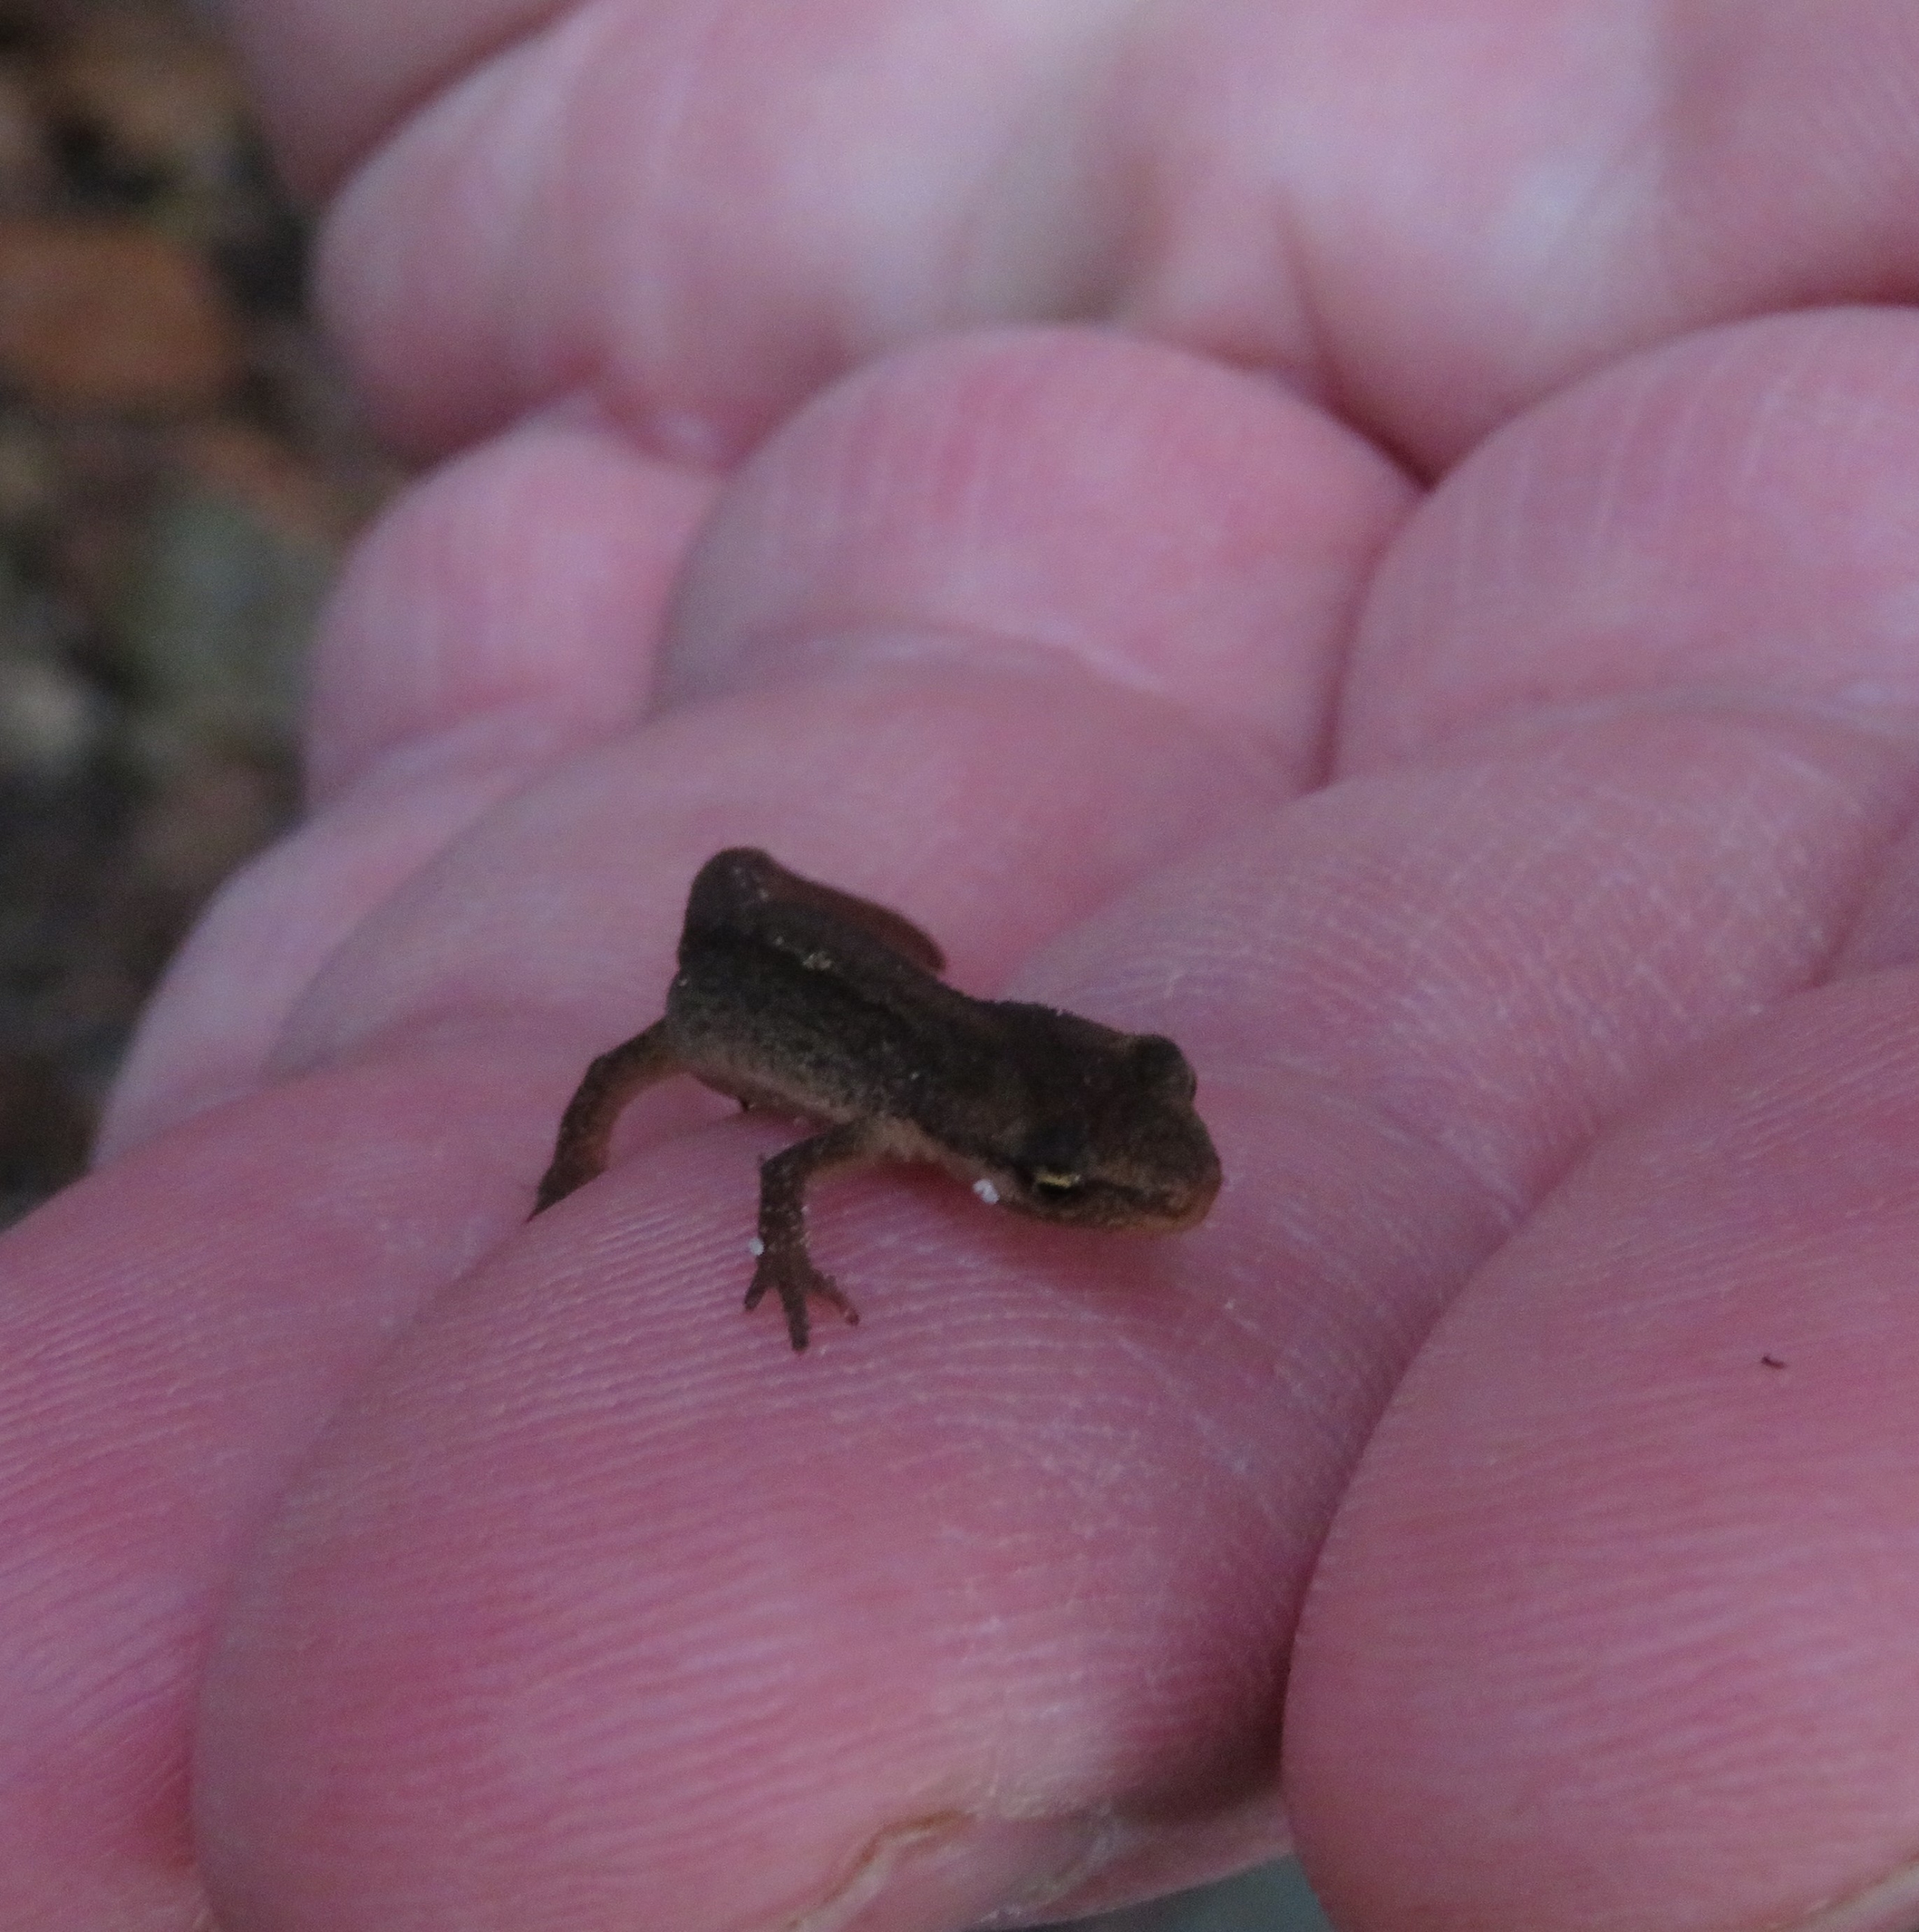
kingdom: Animalia
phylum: Chordata
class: Amphibia
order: Caudata
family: Salamandridae
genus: Lissotriton
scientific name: Lissotriton vulgaris
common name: Lille vandsalamander
